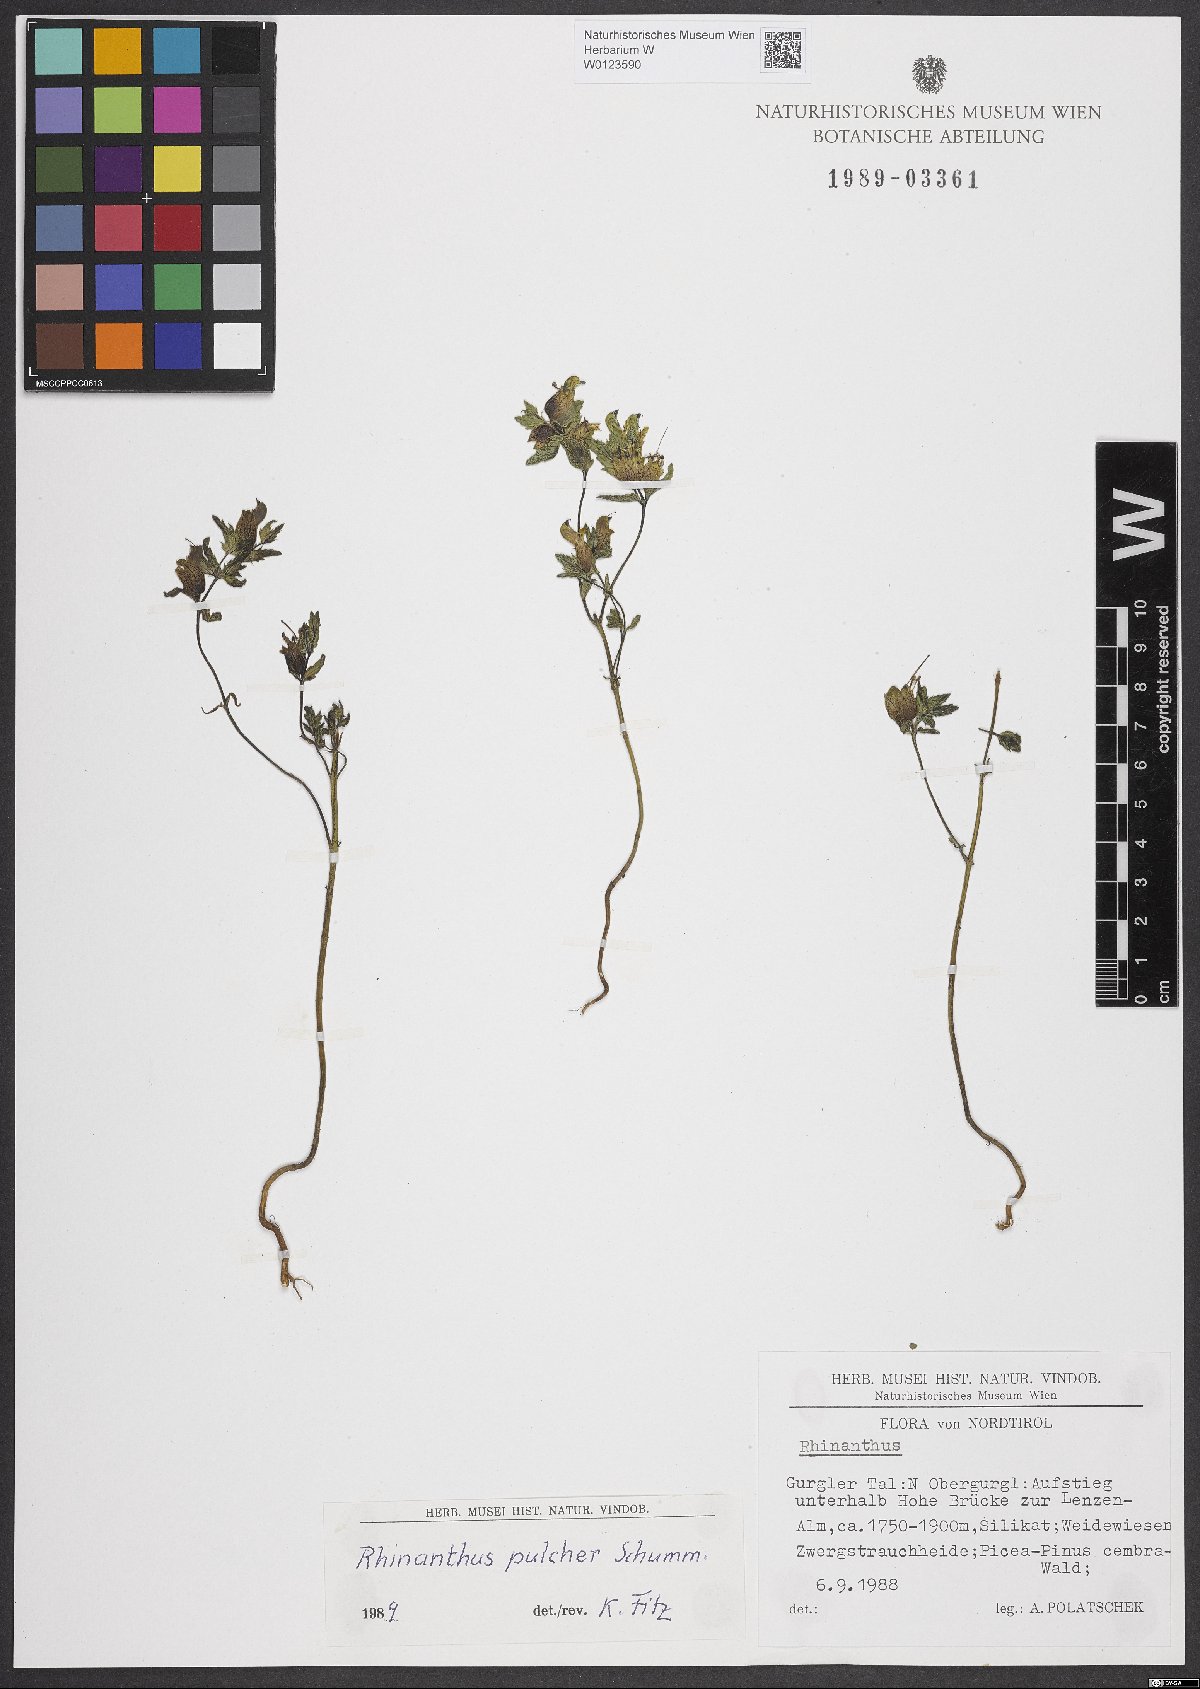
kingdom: Plantae
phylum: Tracheophyta
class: Magnoliopsida
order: Lamiales
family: Orobanchaceae
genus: Rhinanthus
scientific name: Rhinanthus riphaeus
